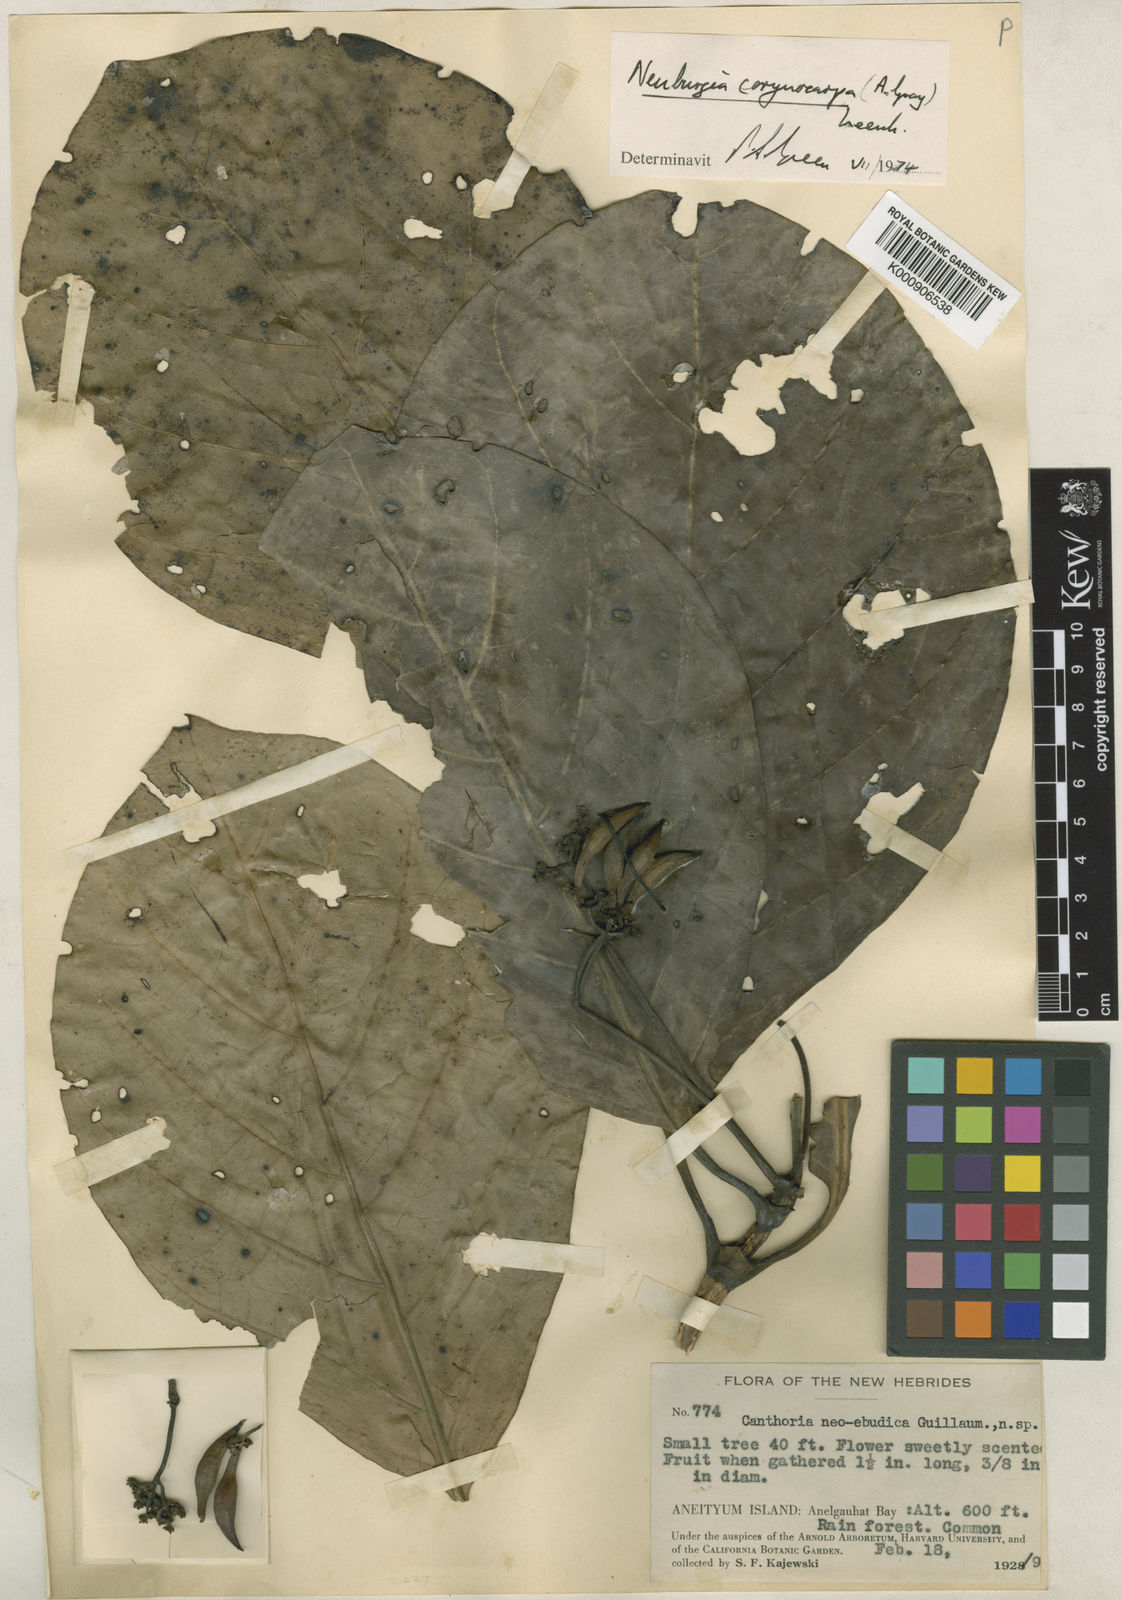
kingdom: Plantae
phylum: Tracheophyta
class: Magnoliopsida
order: Gentianales
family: Loganiaceae
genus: Neuburgia
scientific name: Neuburgia corynocarpa
